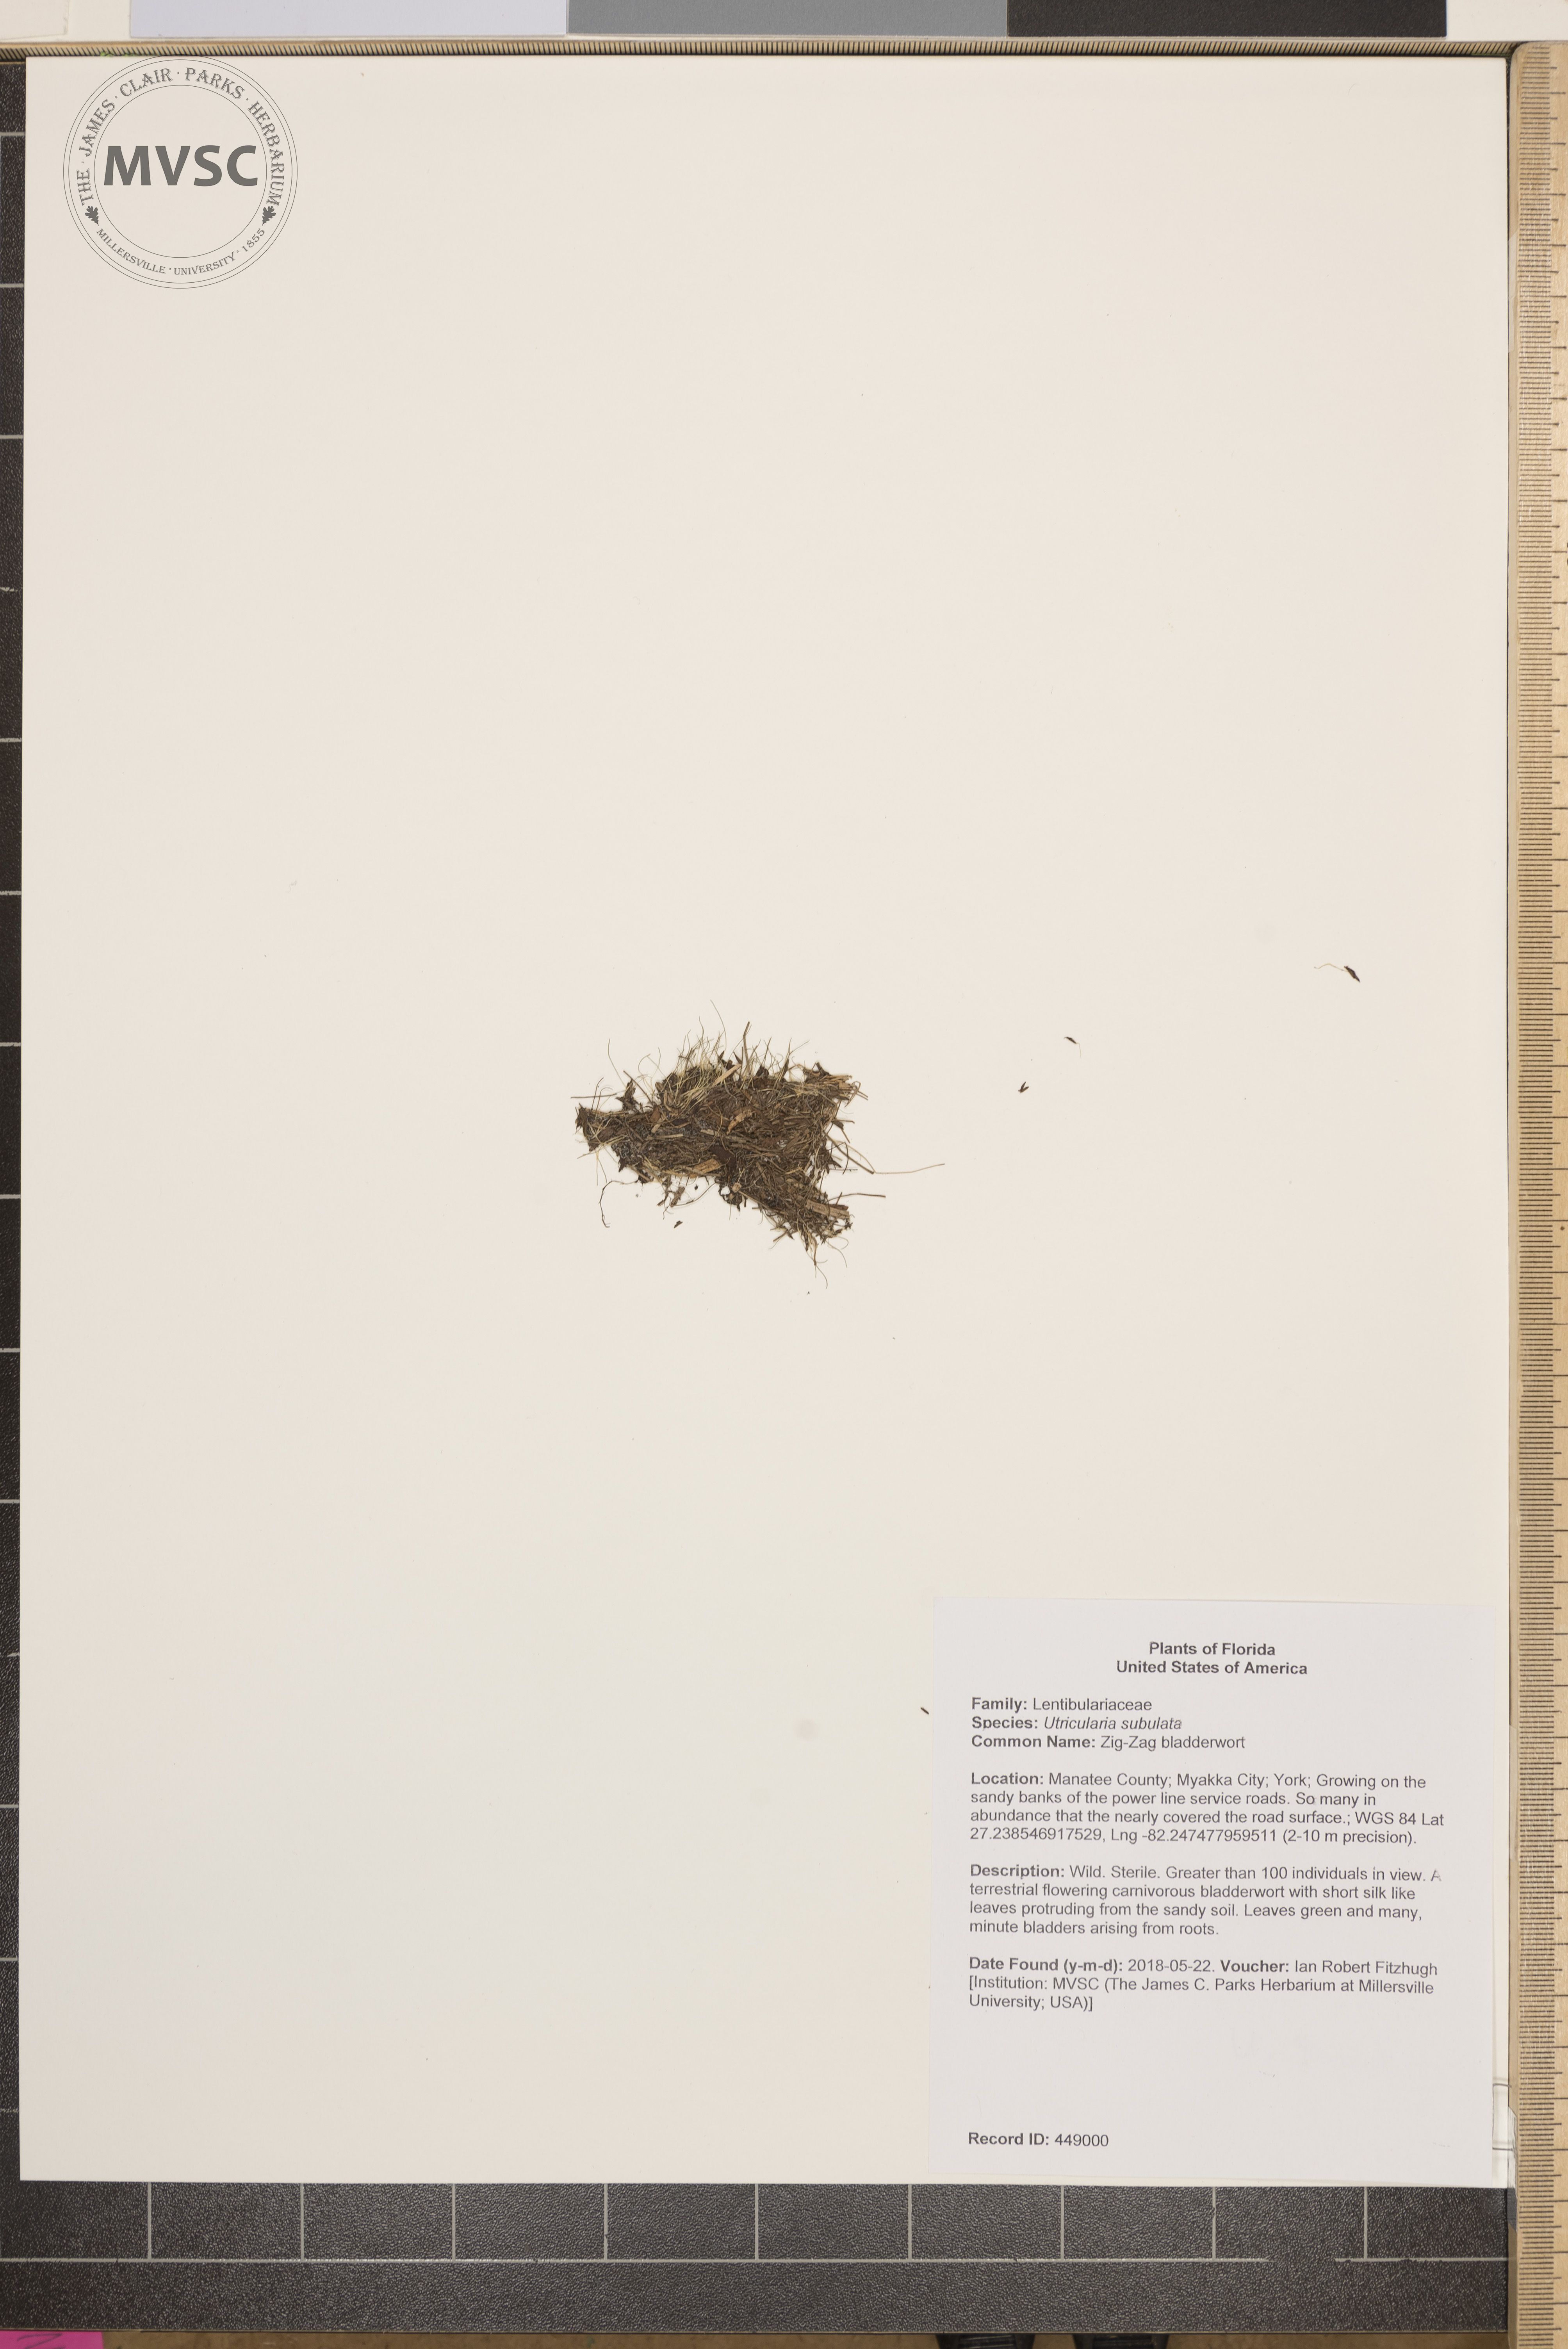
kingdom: Plantae
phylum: Tracheophyta
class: Magnoliopsida
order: Lamiales
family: Lentibulariaceae
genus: Utricularia
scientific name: Utricularia subulata
